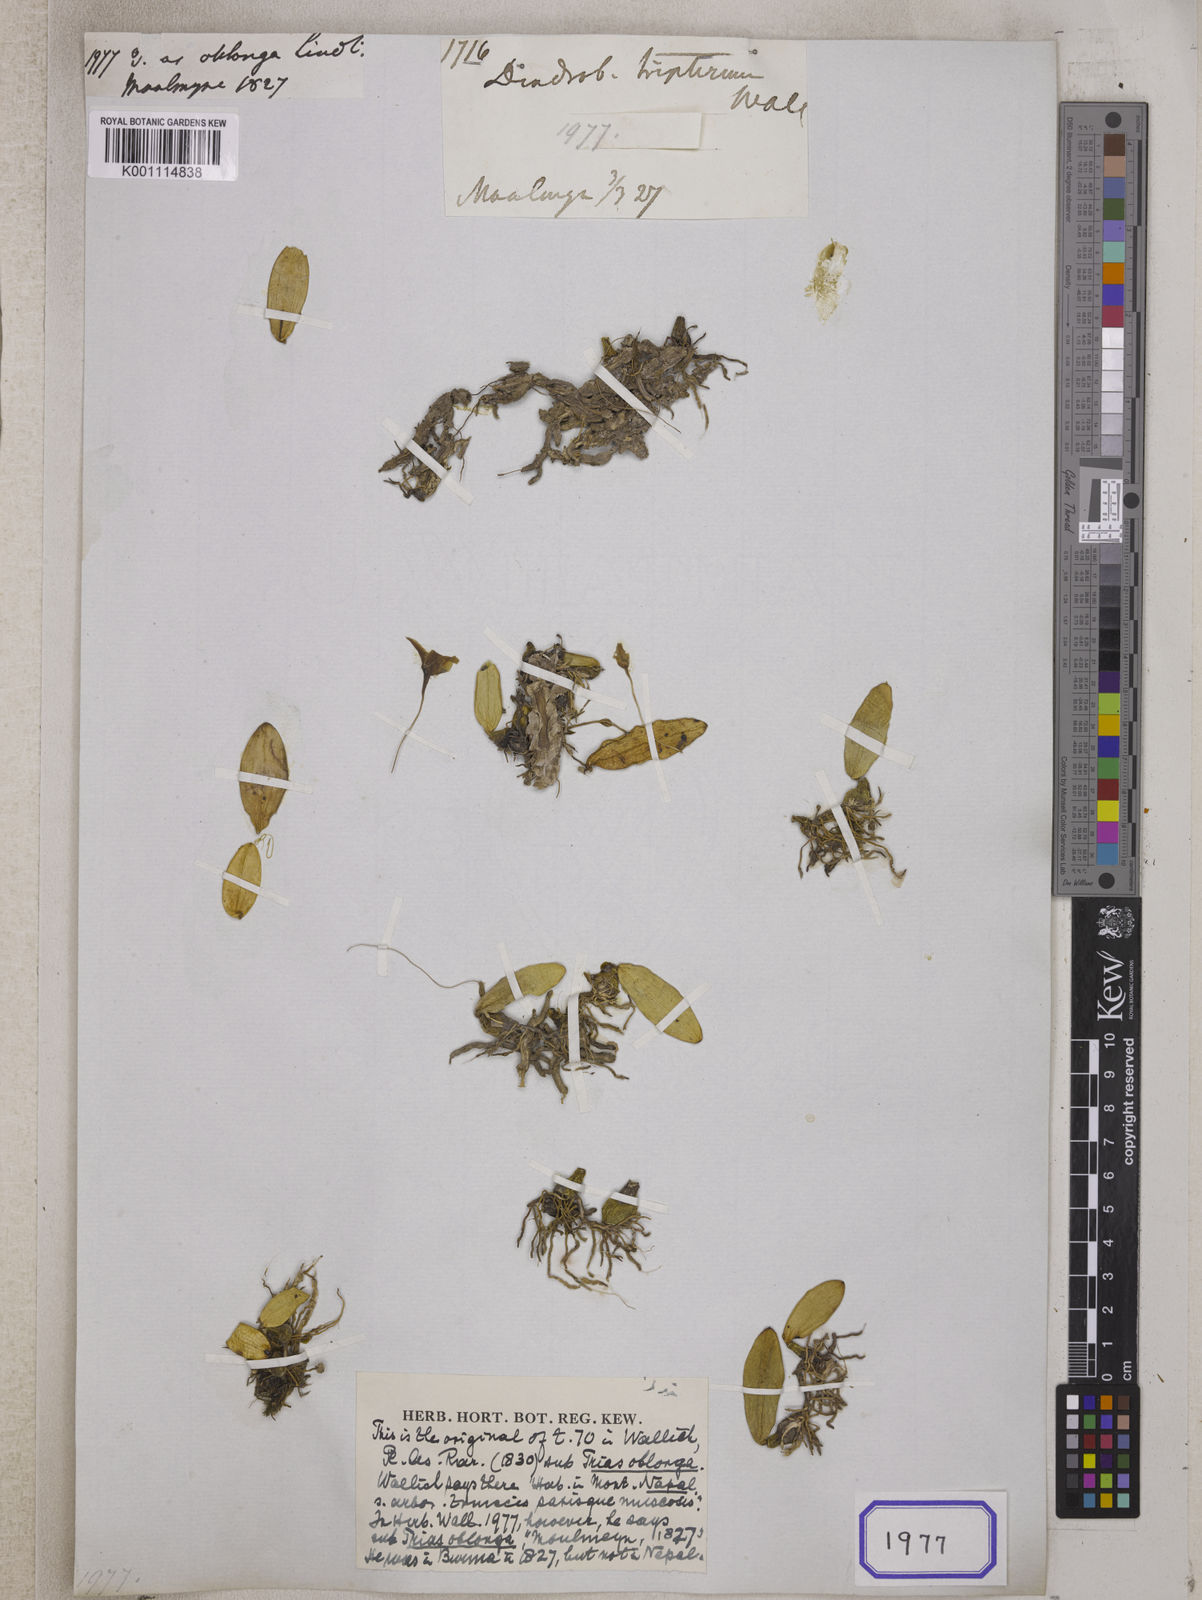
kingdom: Plantae
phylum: Tracheophyta
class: Liliopsida
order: Asparagales
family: Orchidaceae
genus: Bulbophyllum
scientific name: Bulbophyllum oblongum
